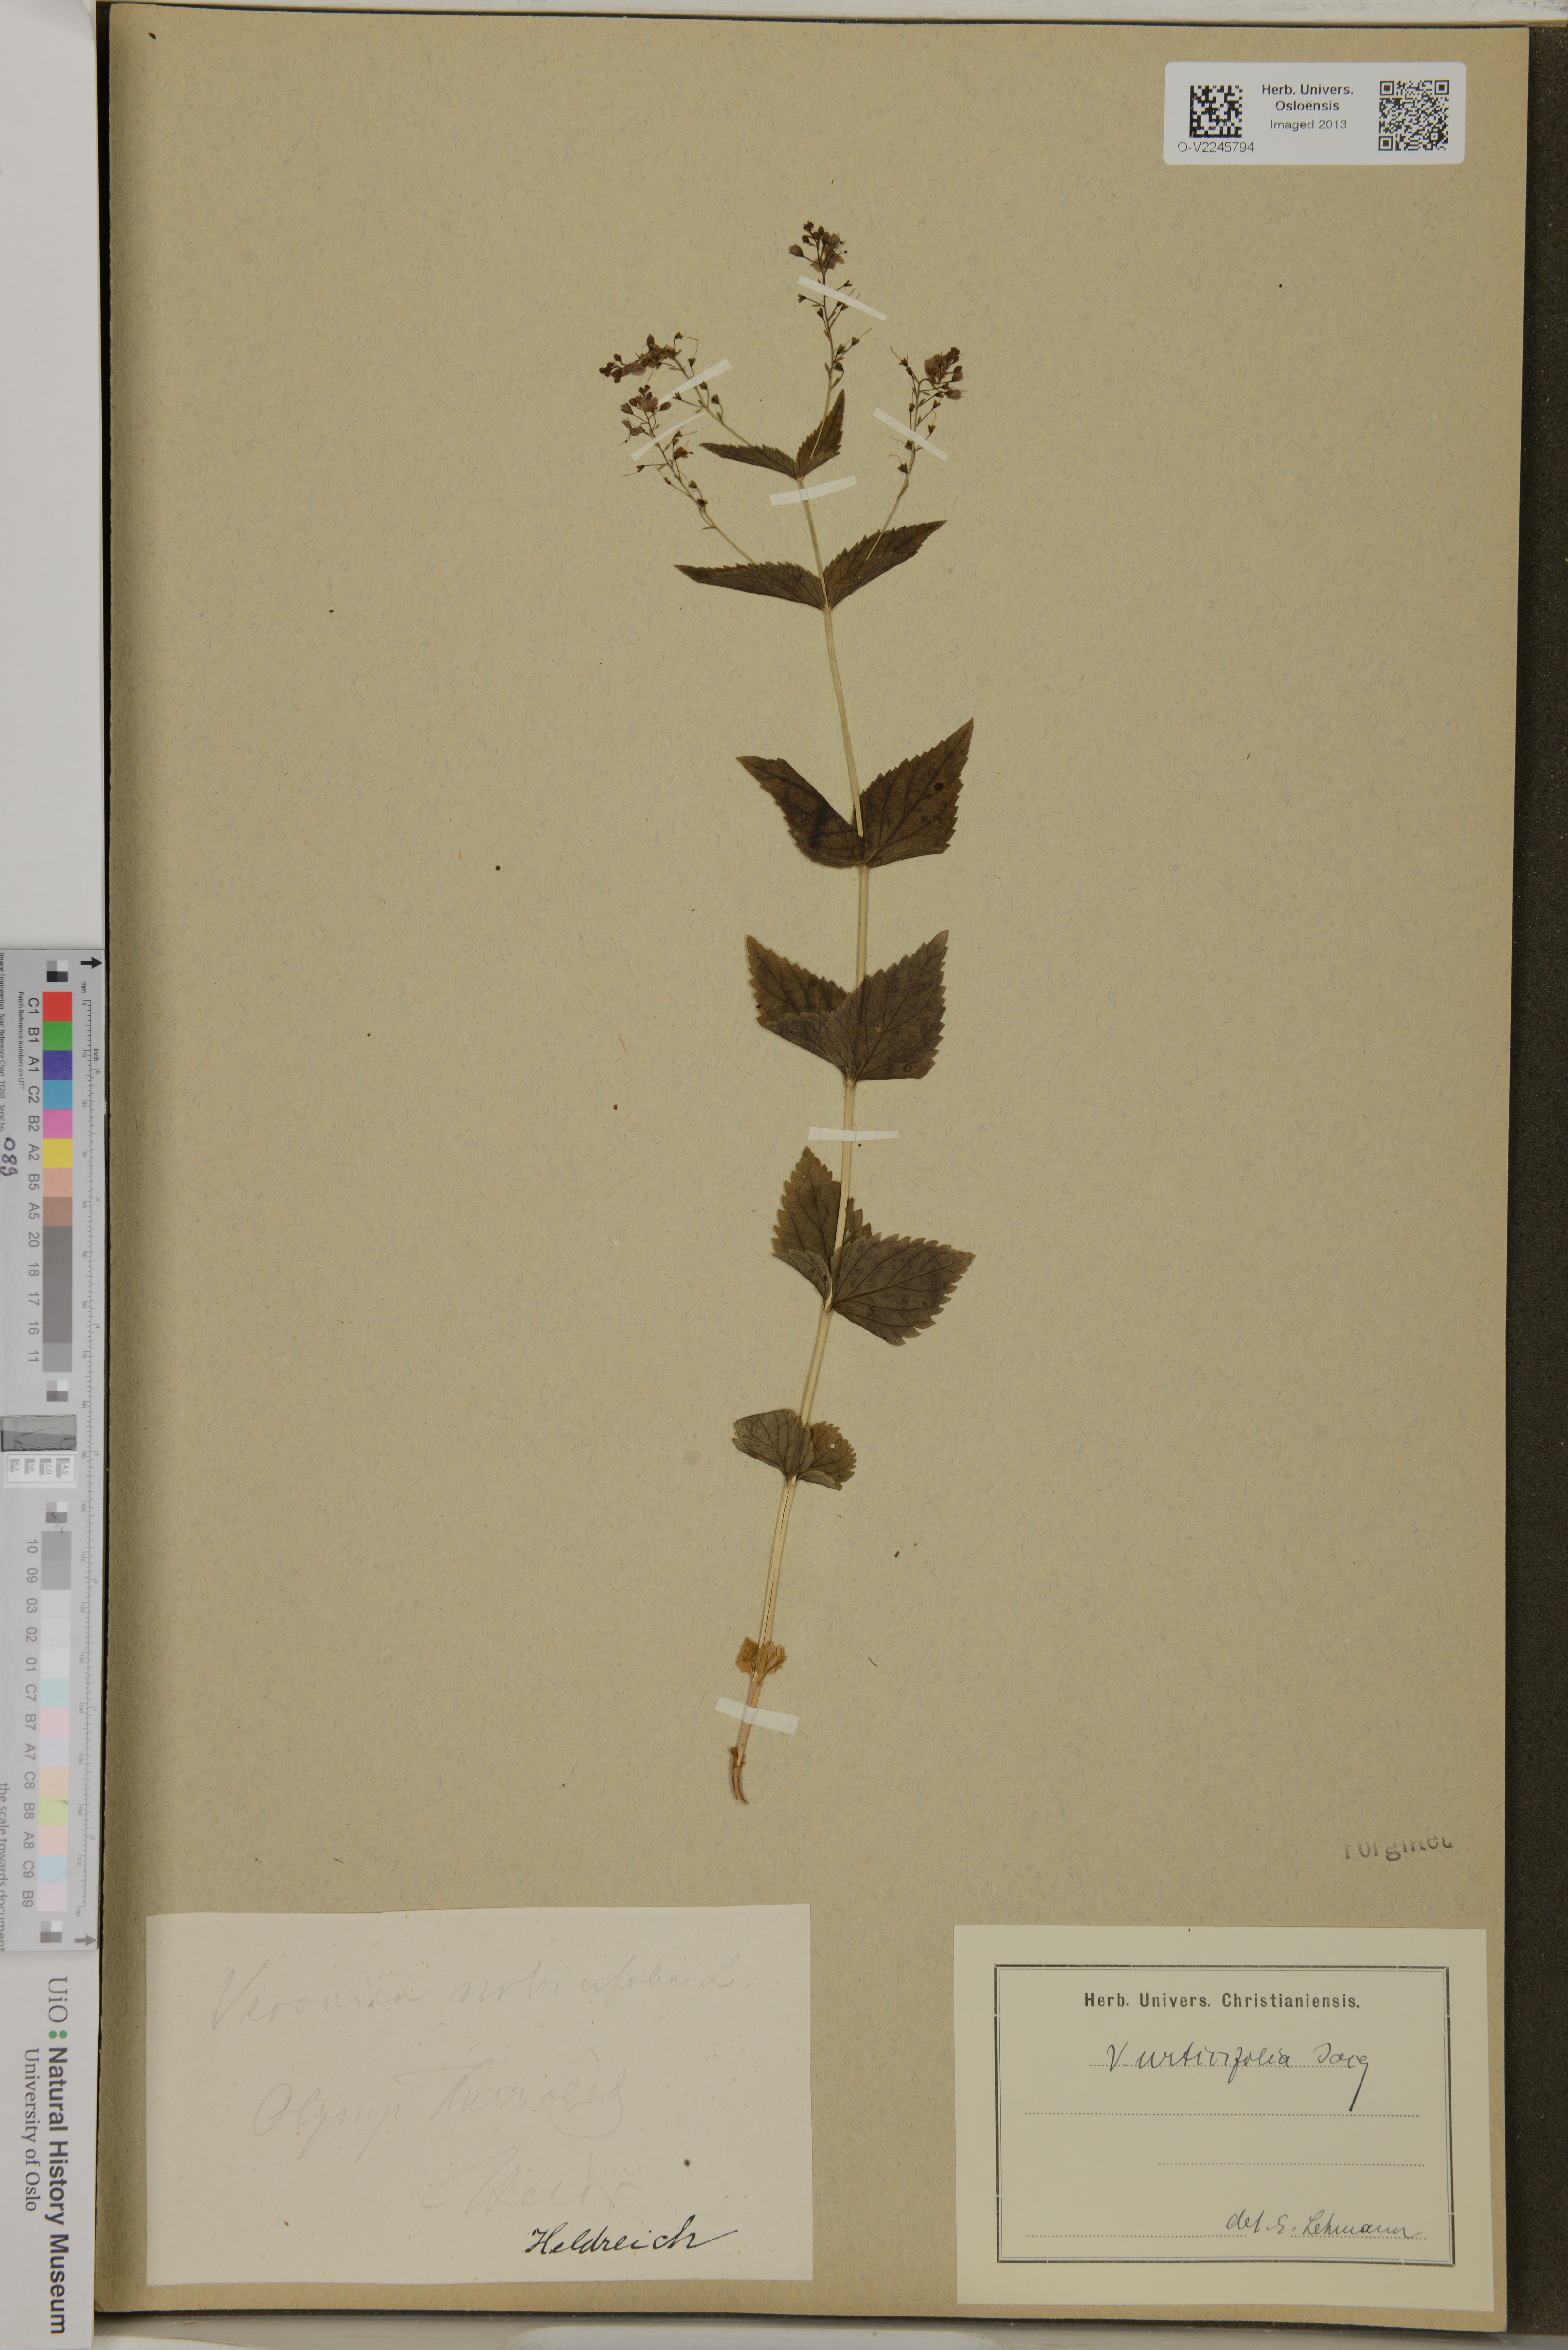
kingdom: Plantae
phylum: Tracheophyta
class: Magnoliopsida
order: Lamiales
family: Plantaginaceae
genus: Veronica
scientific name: Veronica urticifolia
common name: Nettle-leaf speedwell
